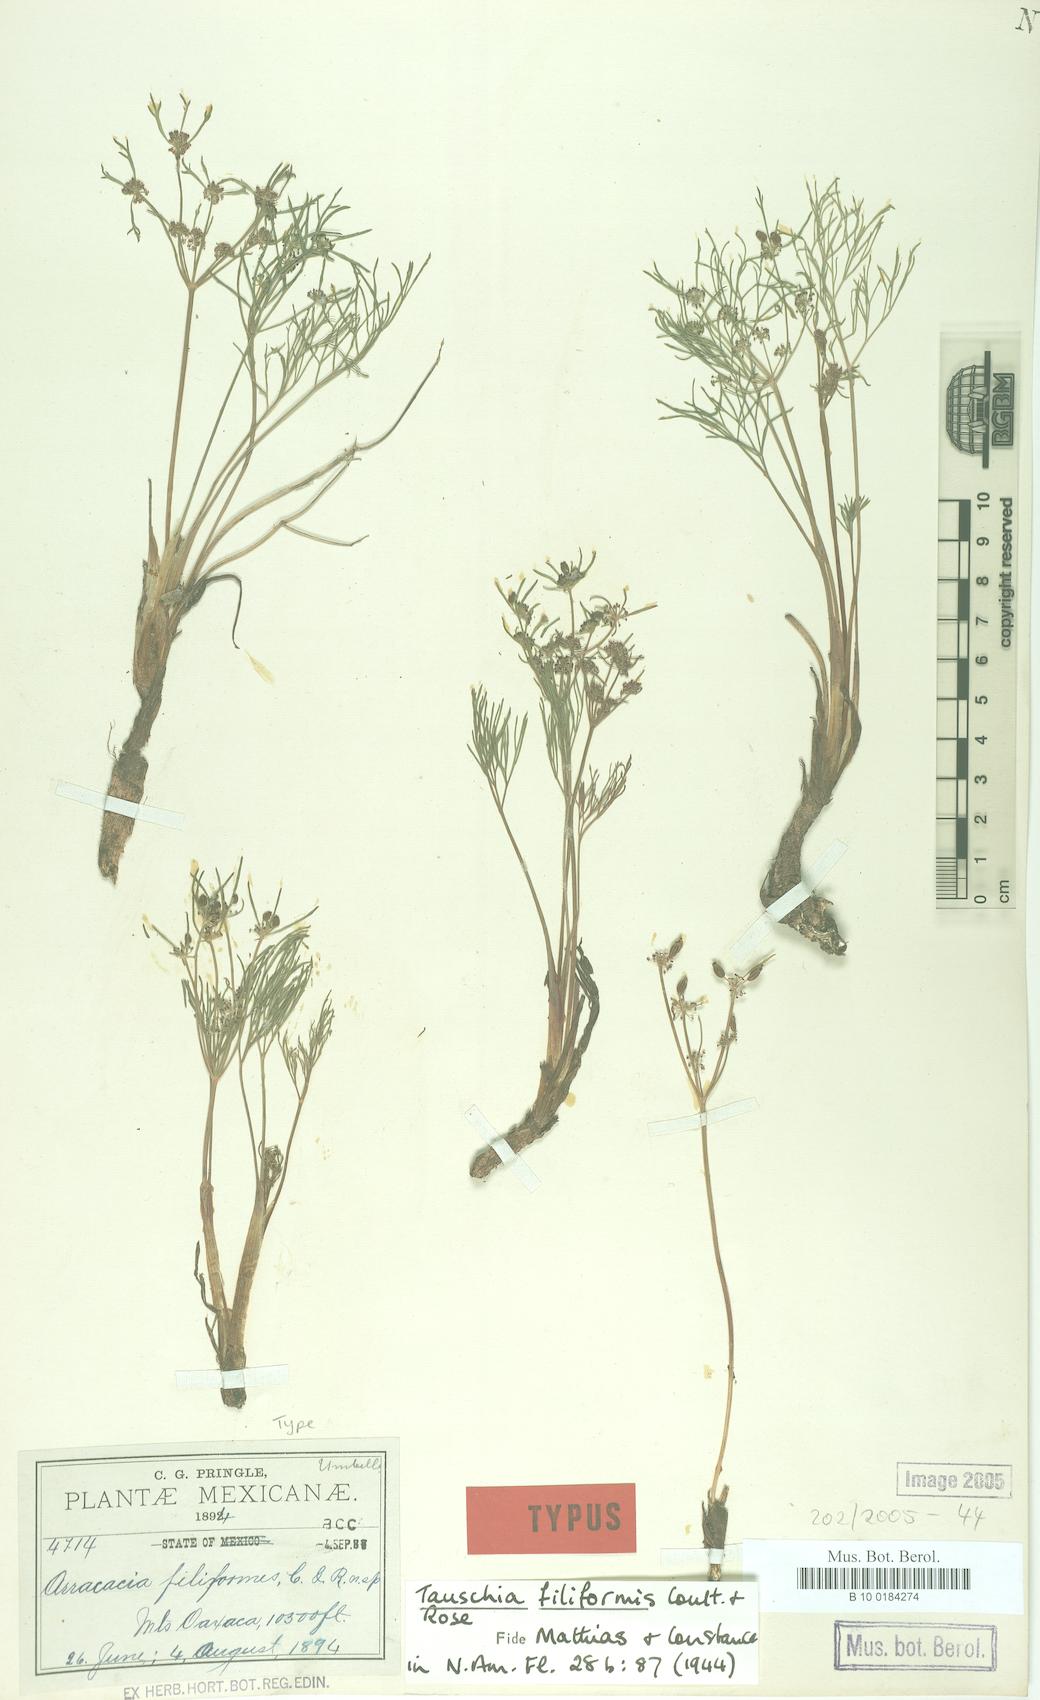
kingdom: Plantae
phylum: Tracheophyta
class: Magnoliopsida
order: Apiales
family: Apiaceae
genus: Tauschia
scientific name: Tauschia filiformis
